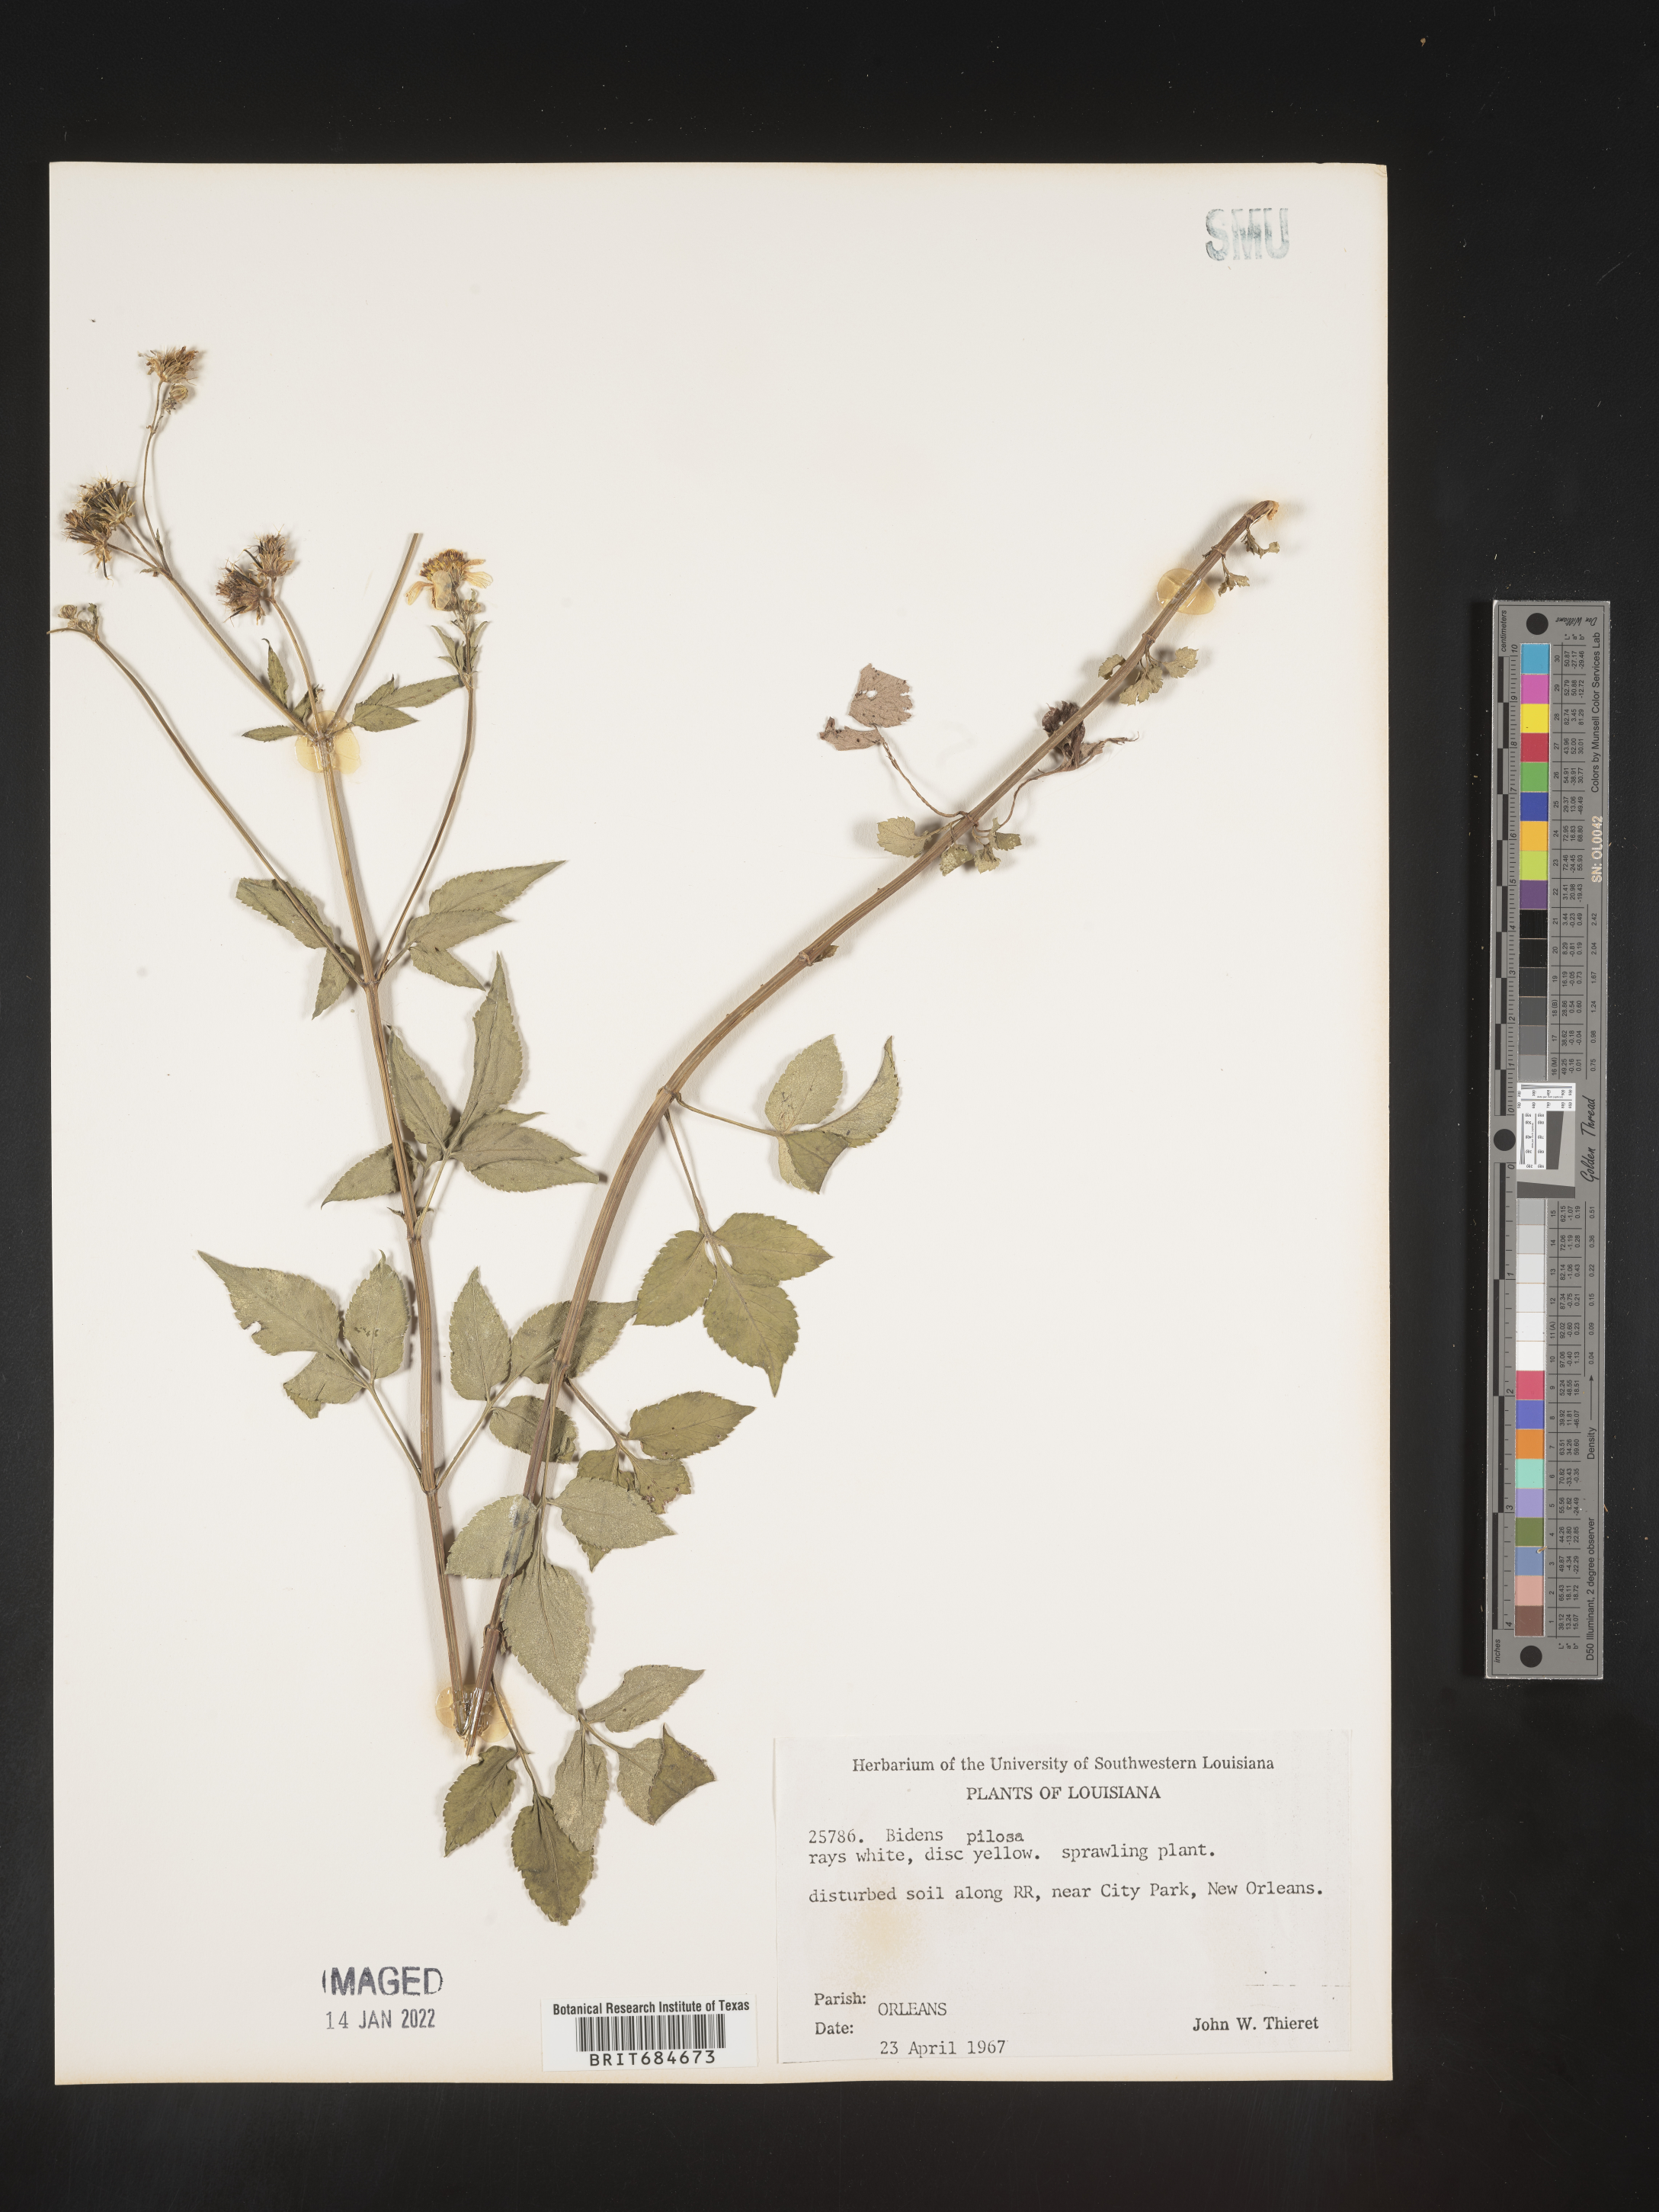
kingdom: Plantae
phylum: Tracheophyta
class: Magnoliopsida
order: Asterales
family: Asteraceae
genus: Bidens
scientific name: Bidens pilosa
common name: Black-jack
